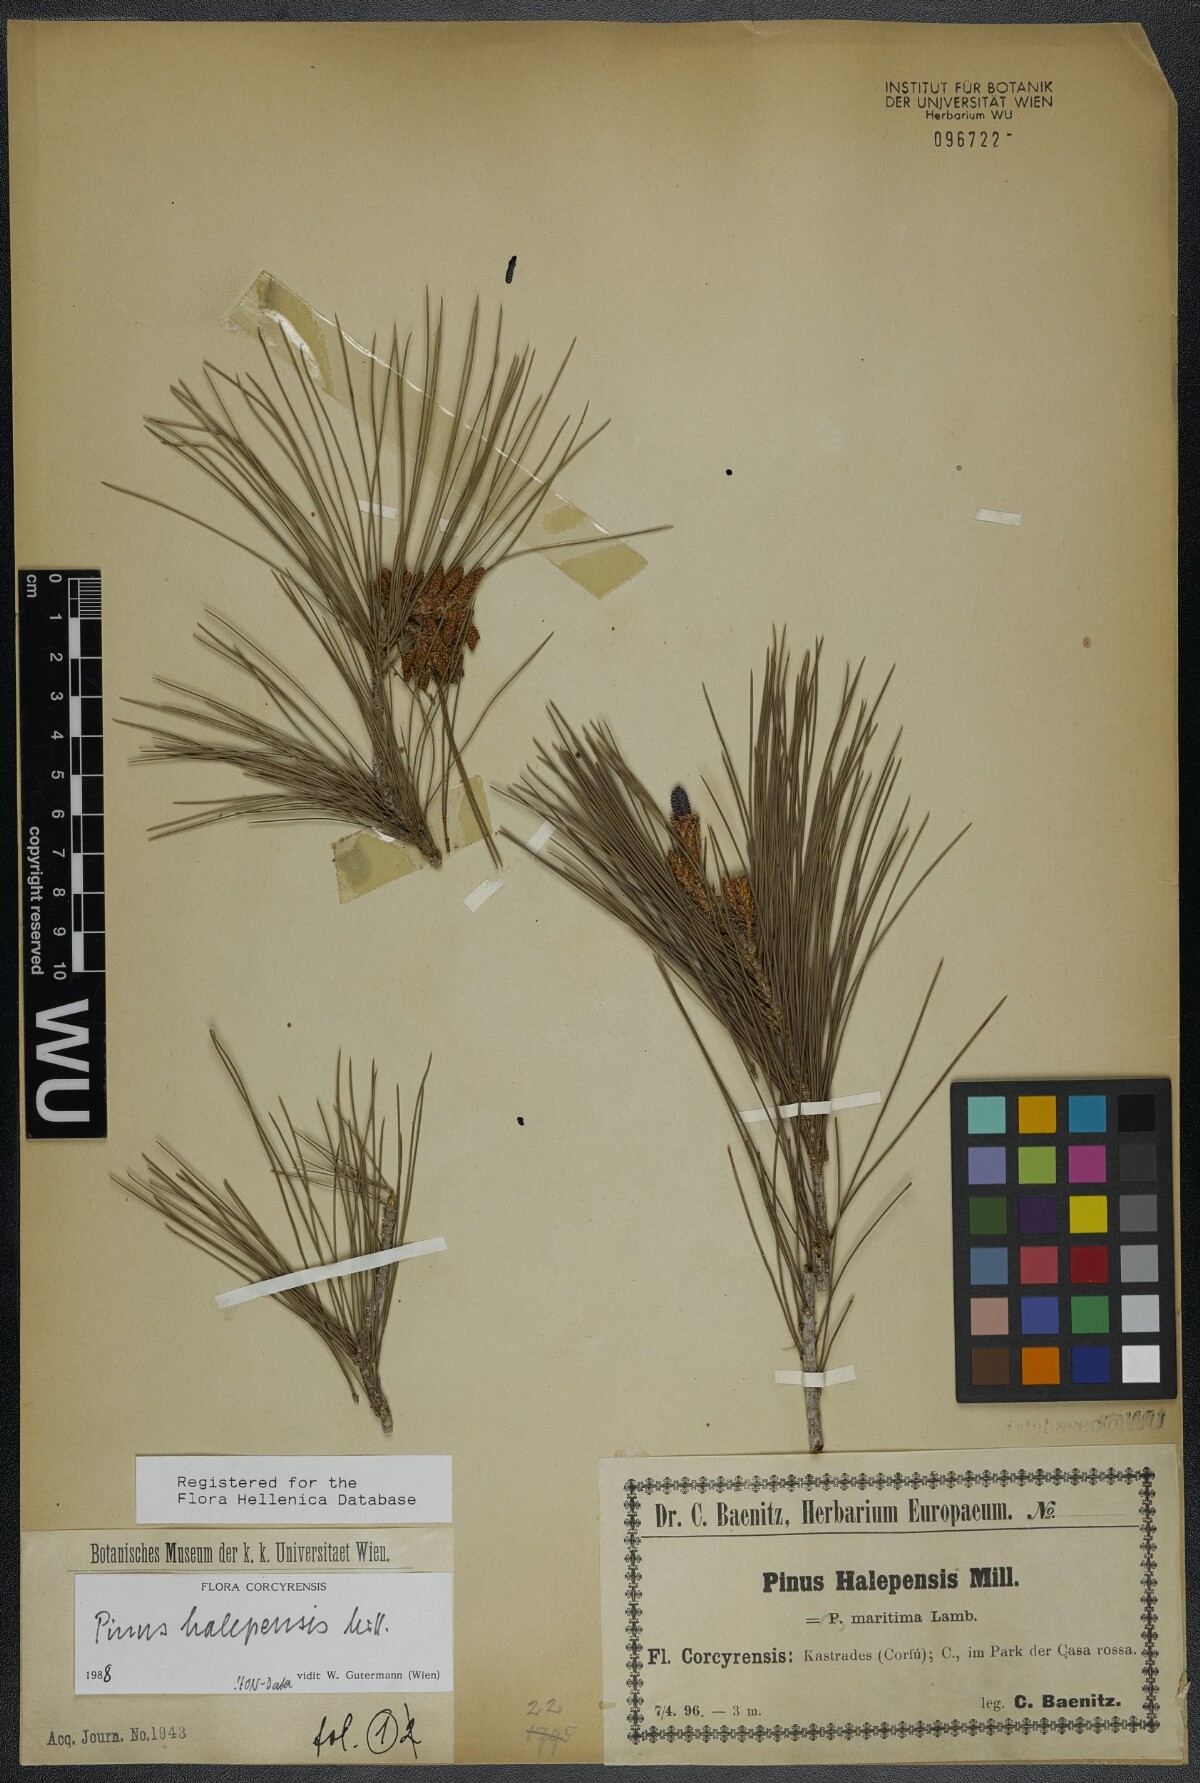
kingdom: Plantae
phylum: Tracheophyta
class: Pinopsida
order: Pinales
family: Pinaceae
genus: Pinus
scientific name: Pinus halepensis
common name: Aleppo pine
